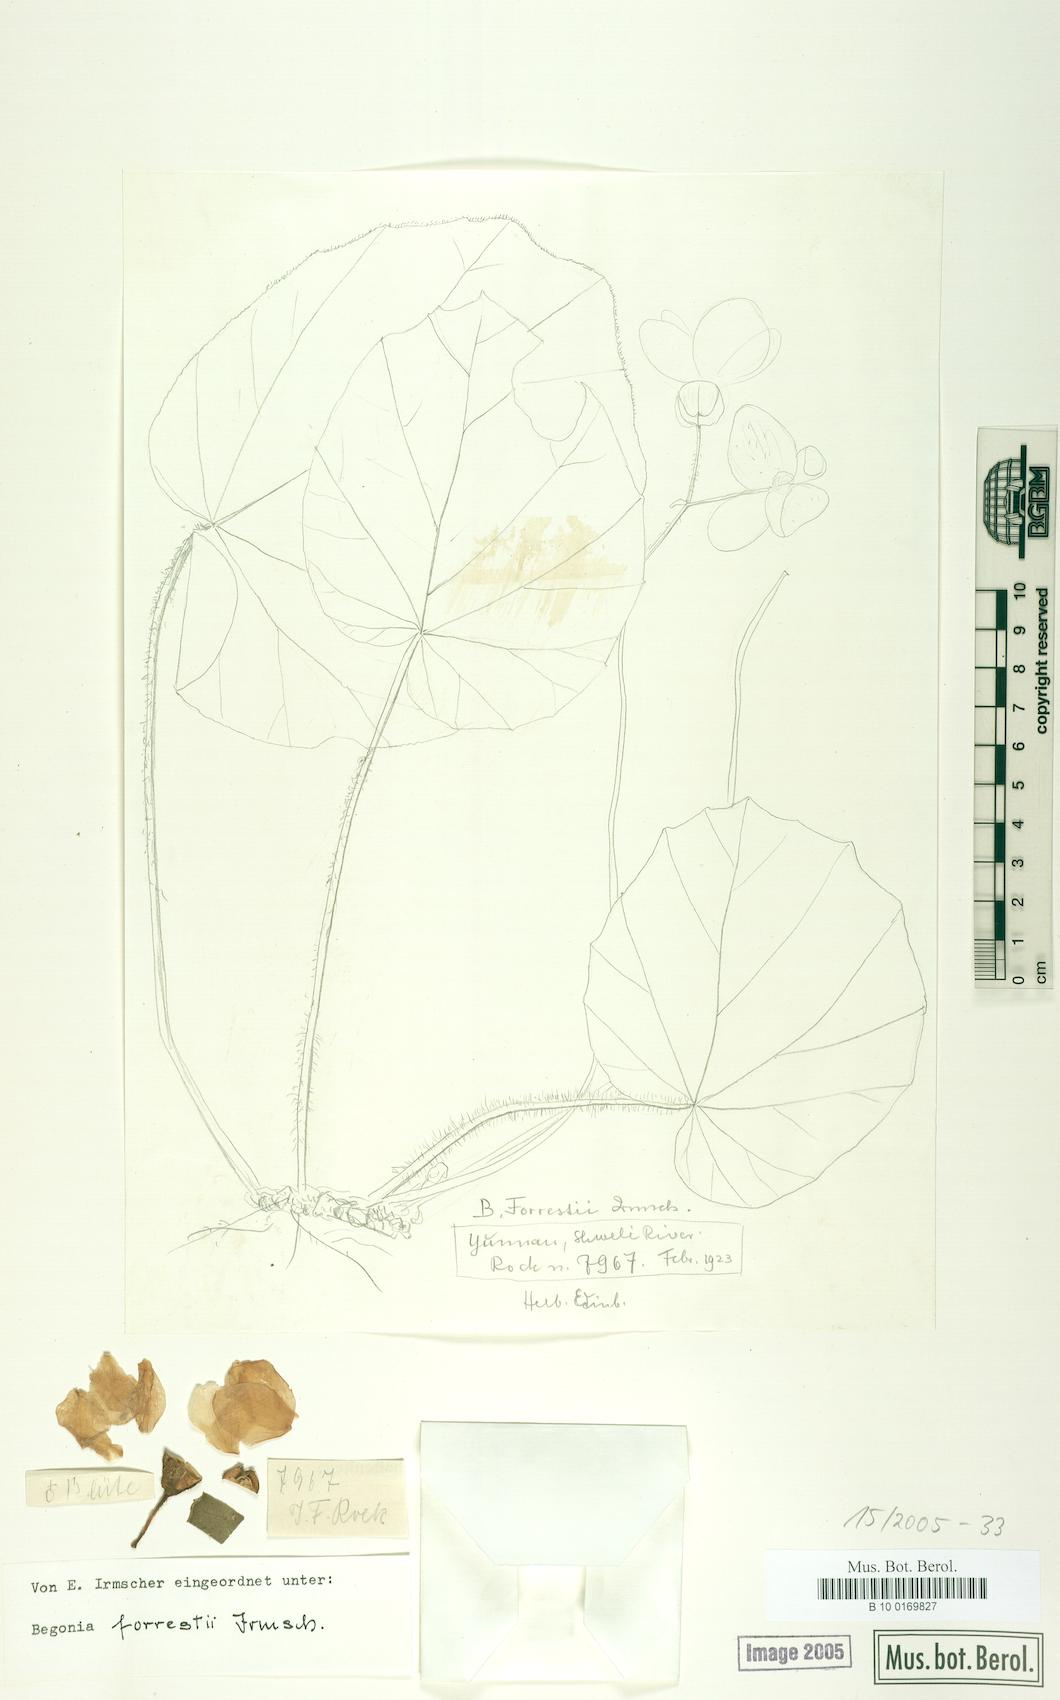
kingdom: Plantae
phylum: Tracheophyta
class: Magnoliopsida
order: Cucurbitales
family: Begoniaceae
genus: Begonia
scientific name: Begonia forrestii
